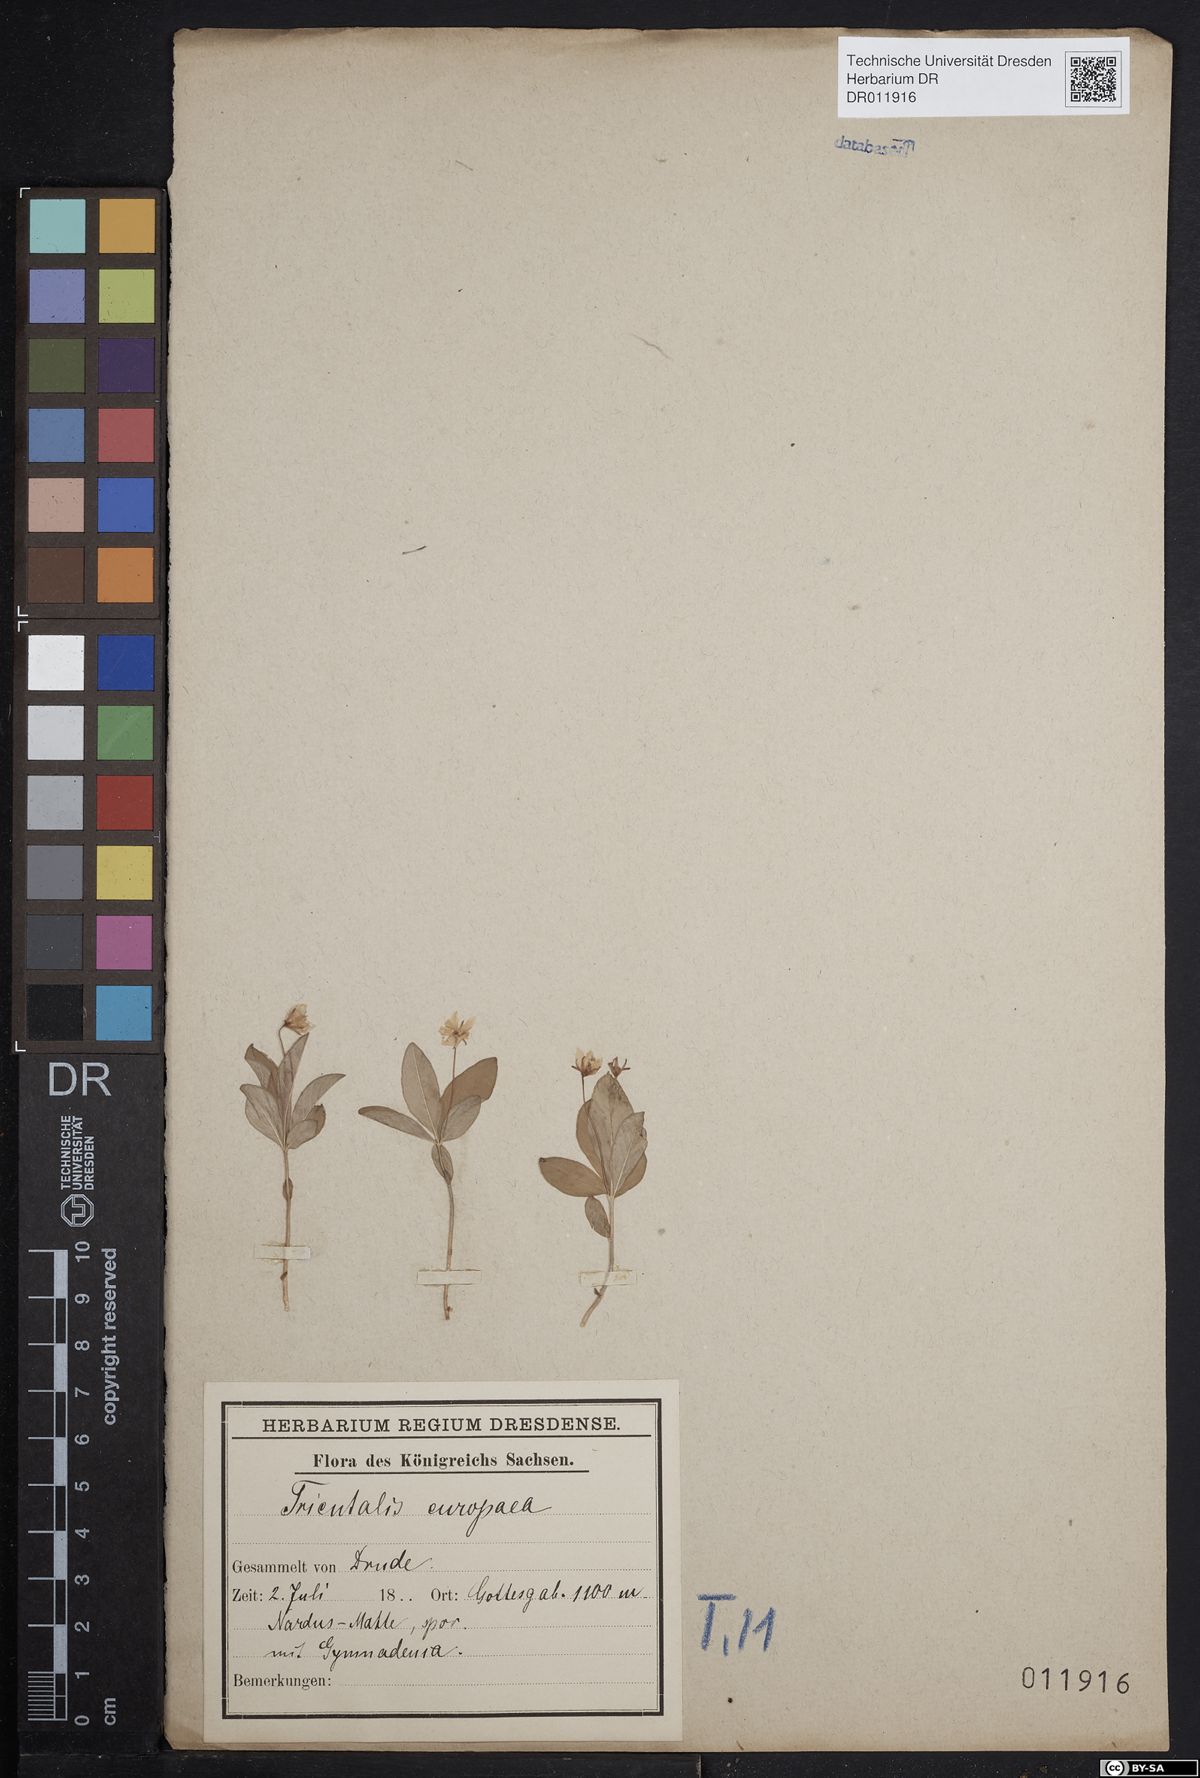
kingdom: Plantae
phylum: Tracheophyta
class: Magnoliopsida
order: Ericales
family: Primulaceae
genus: Lysimachia
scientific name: Lysimachia europaea
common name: Arctic starflower
